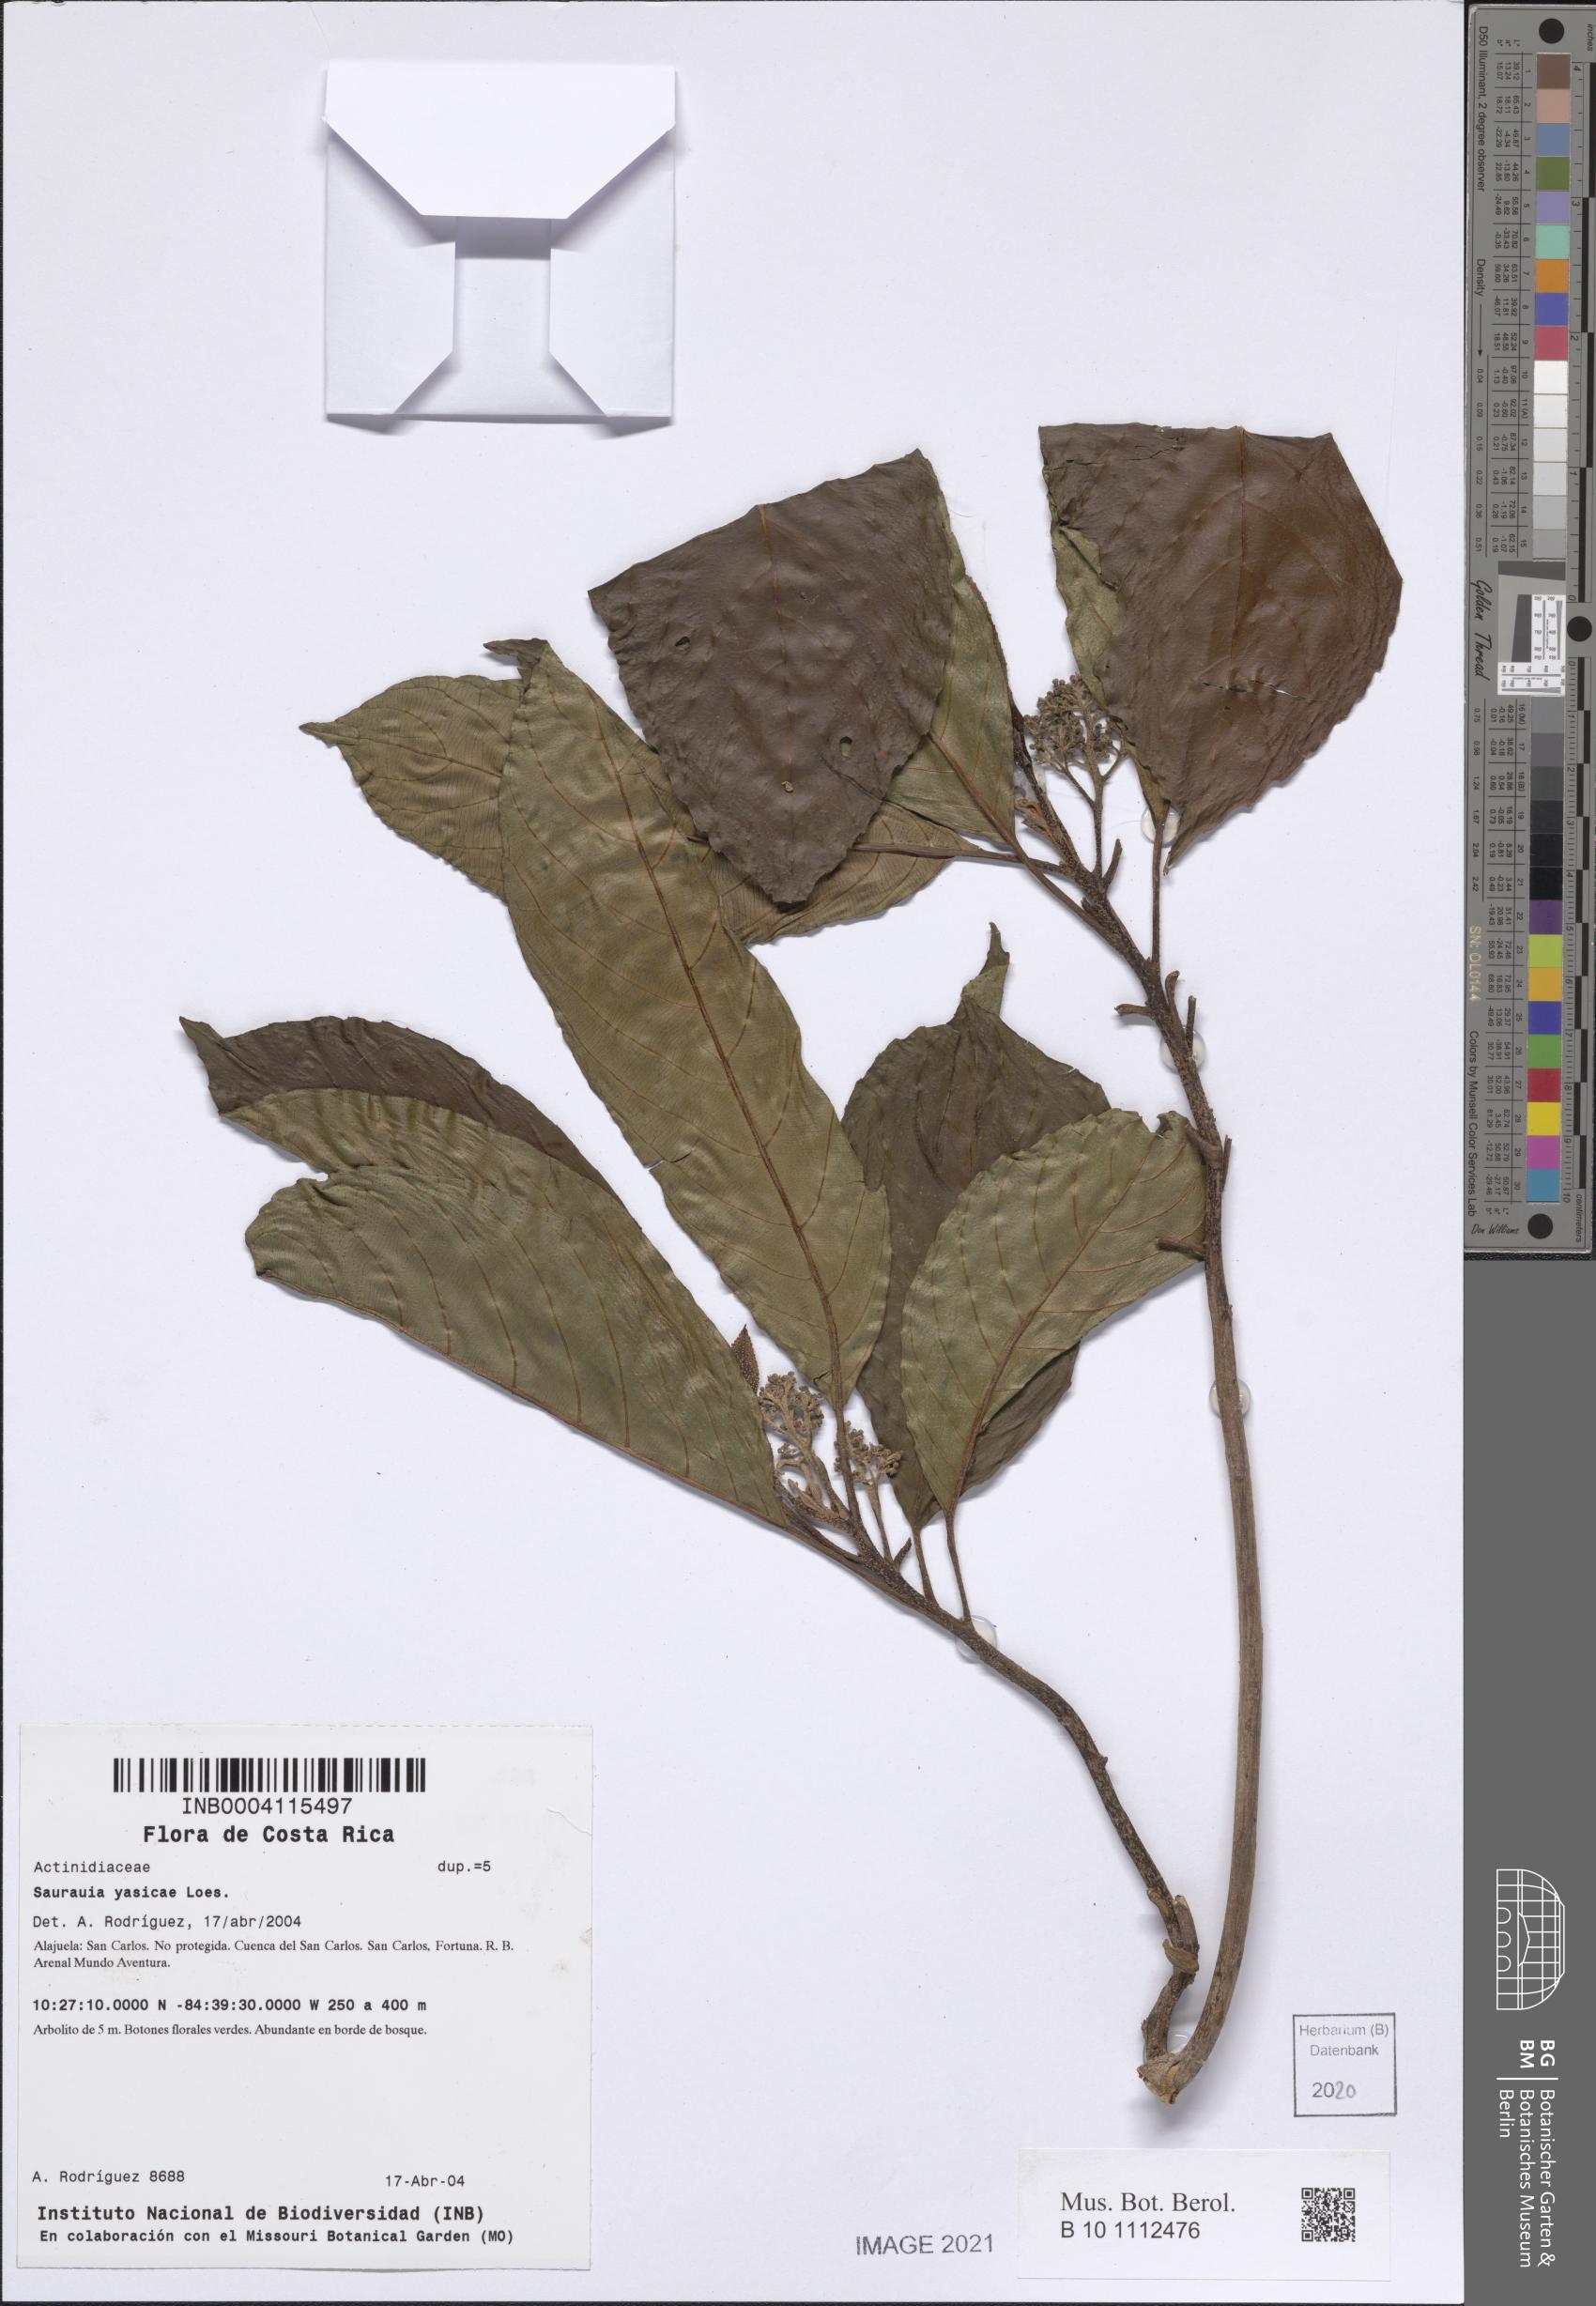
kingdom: Plantae
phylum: Tracheophyta
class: Magnoliopsida
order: Ericales
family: Actinidiaceae
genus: Saurauia
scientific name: Saurauia yasicae
